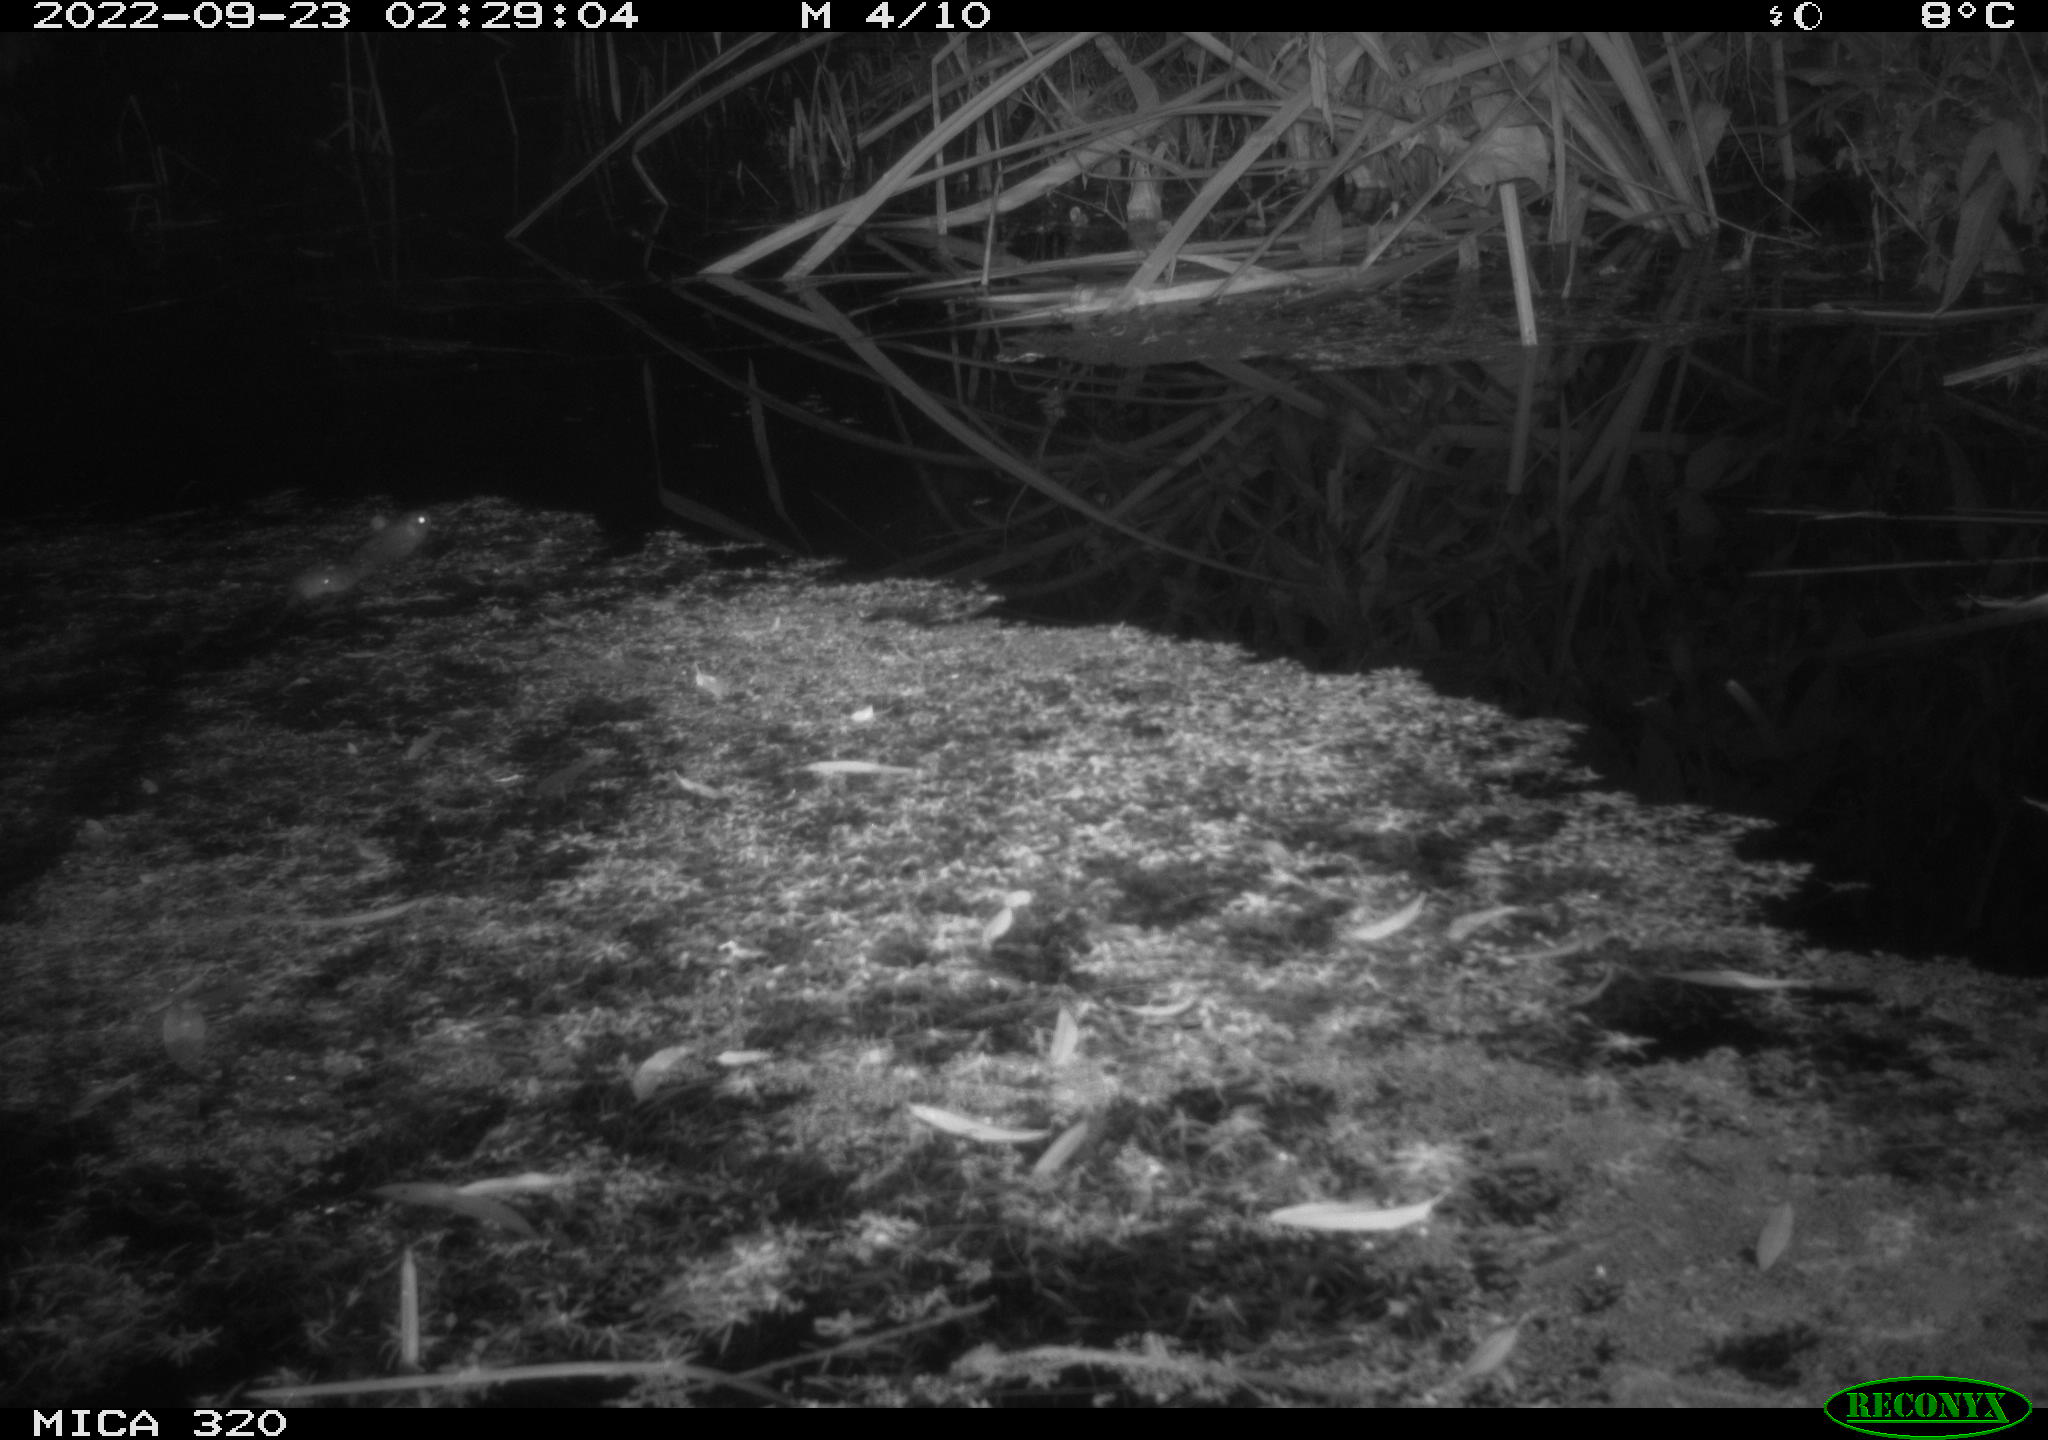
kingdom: Animalia
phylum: Chordata
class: Mammalia
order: Rodentia
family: Muridae
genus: Rattus
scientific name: Rattus norvegicus
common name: Brown rat
